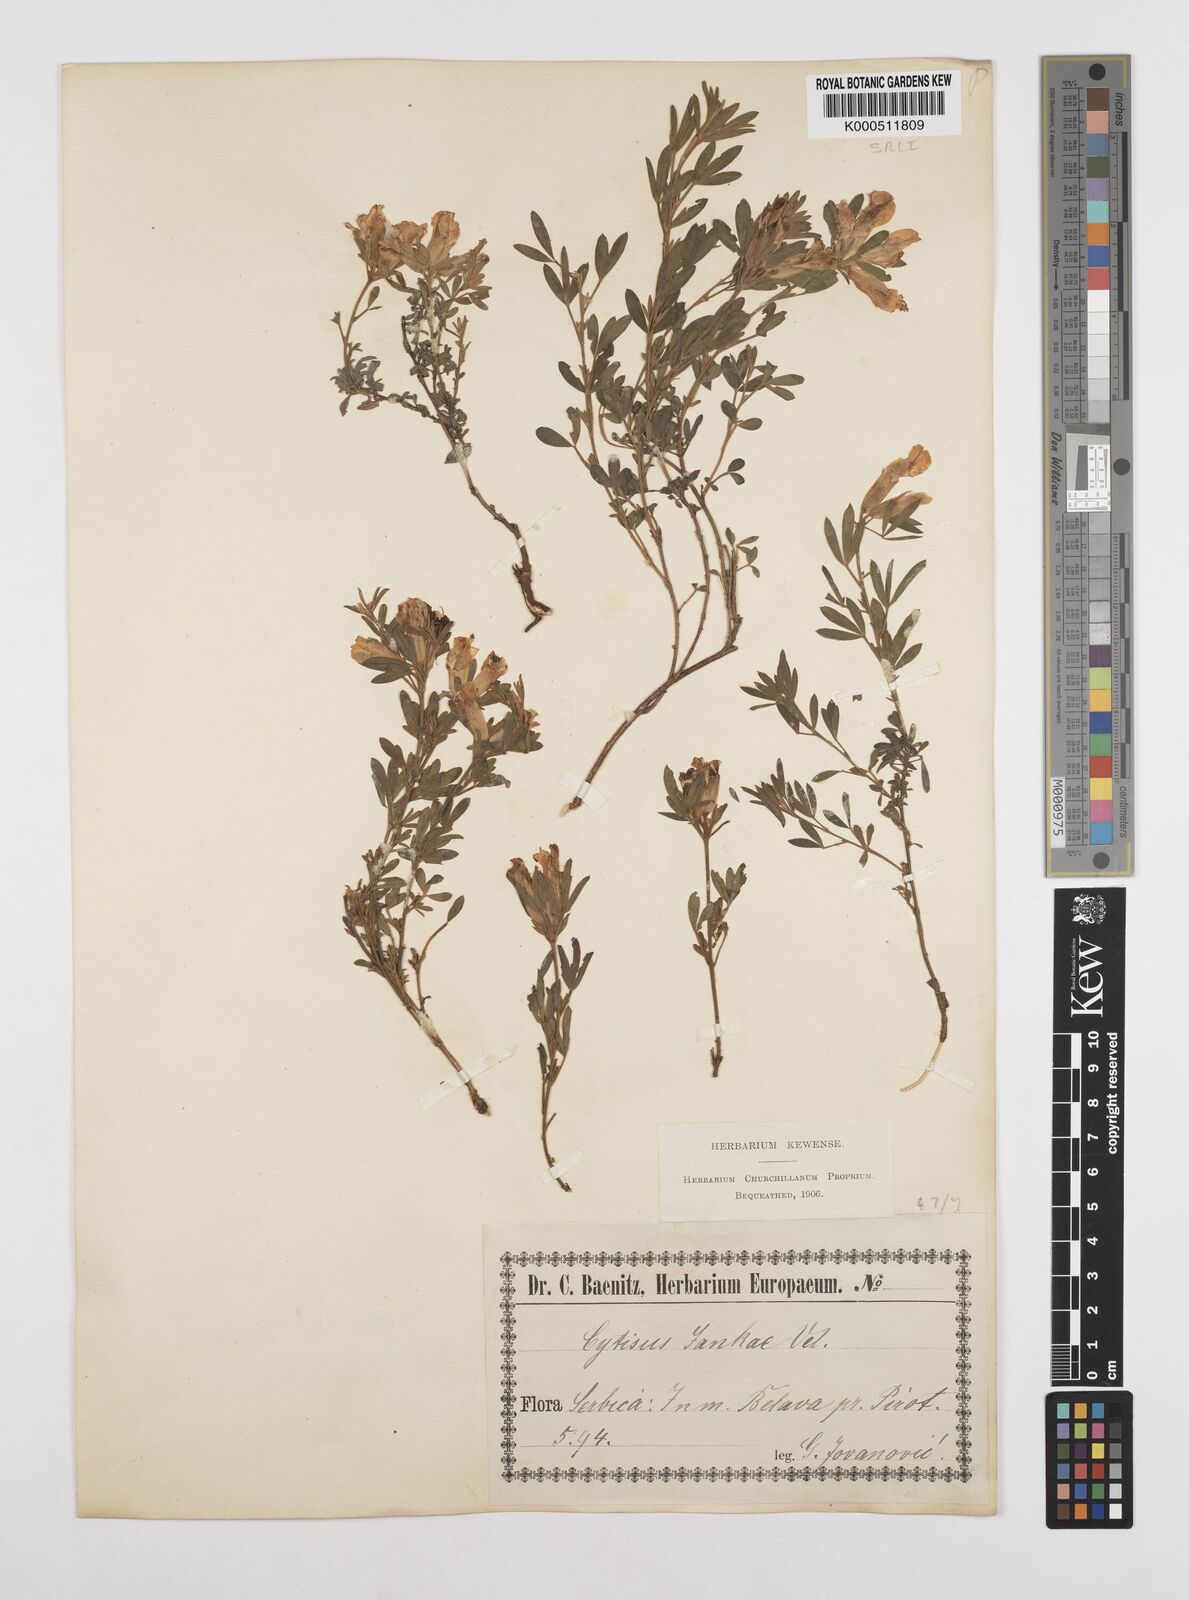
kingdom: Plantae
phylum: Tracheophyta
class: Magnoliopsida
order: Fabales
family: Fabaceae
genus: Chamaecytisus
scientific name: Chamaecytisus jankae
